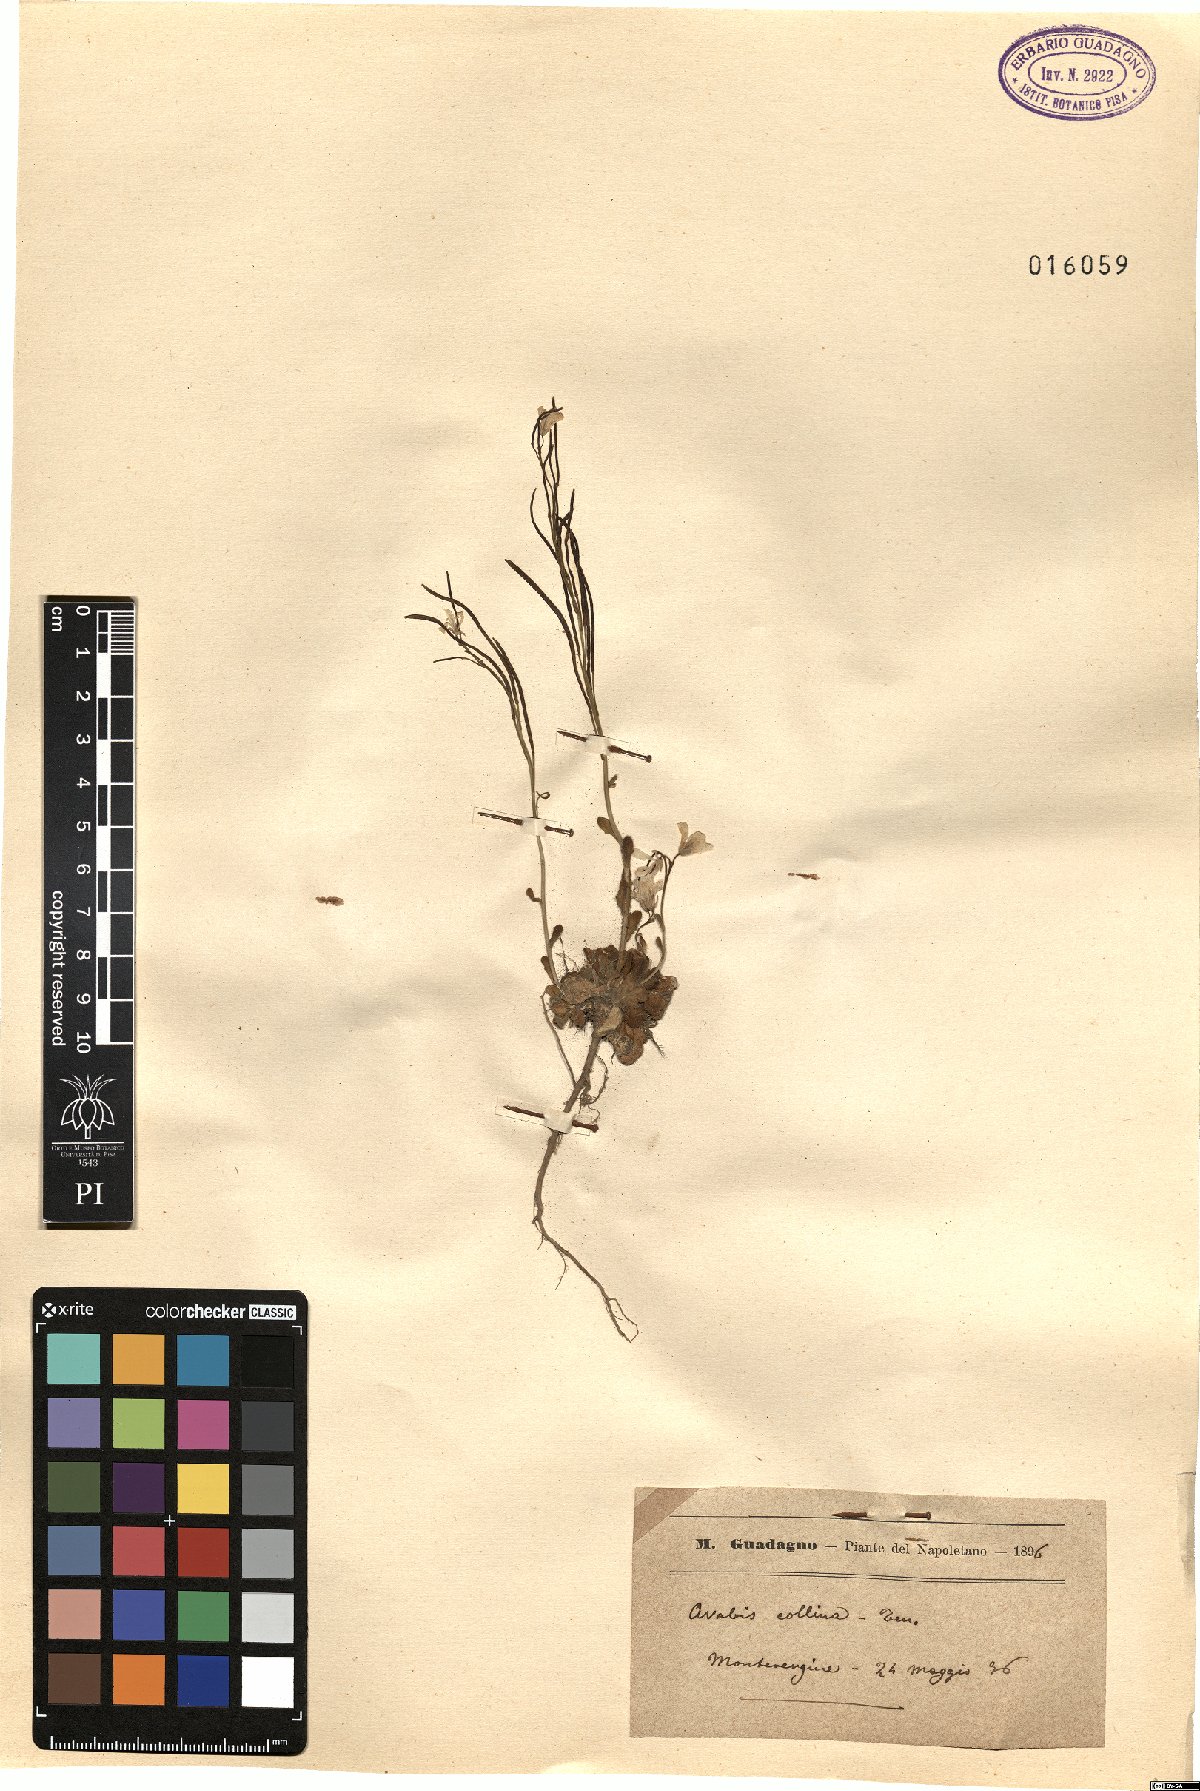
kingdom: Plantae
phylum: Tracheophyta
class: Magnoliopsida
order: Brassicales
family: Brassicaceae
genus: Arabis
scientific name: Arabis collina
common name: Rosy cress
